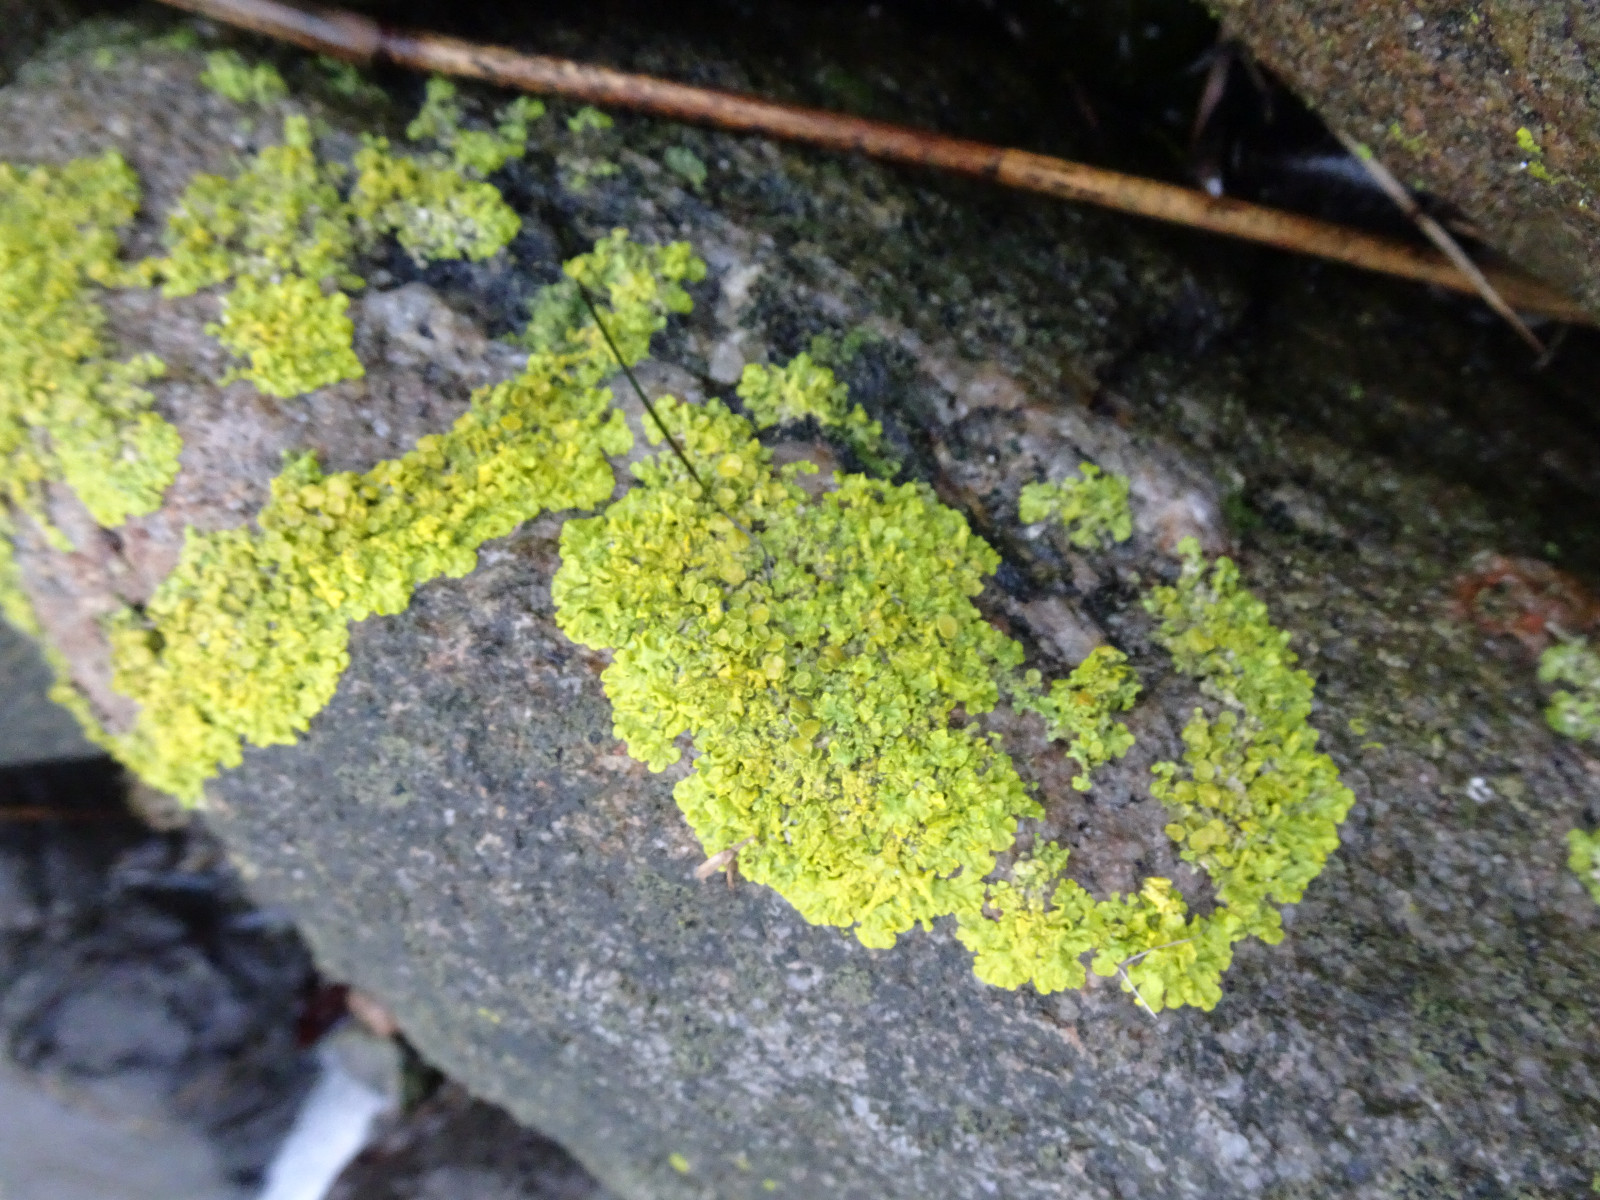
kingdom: Fungi
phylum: Ascomycota
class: Lecanoromycetes
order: Teloschistales
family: Teloschistaceae
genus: Xanthoria
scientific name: Xanthoria parietina
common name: almindelig væggelav
